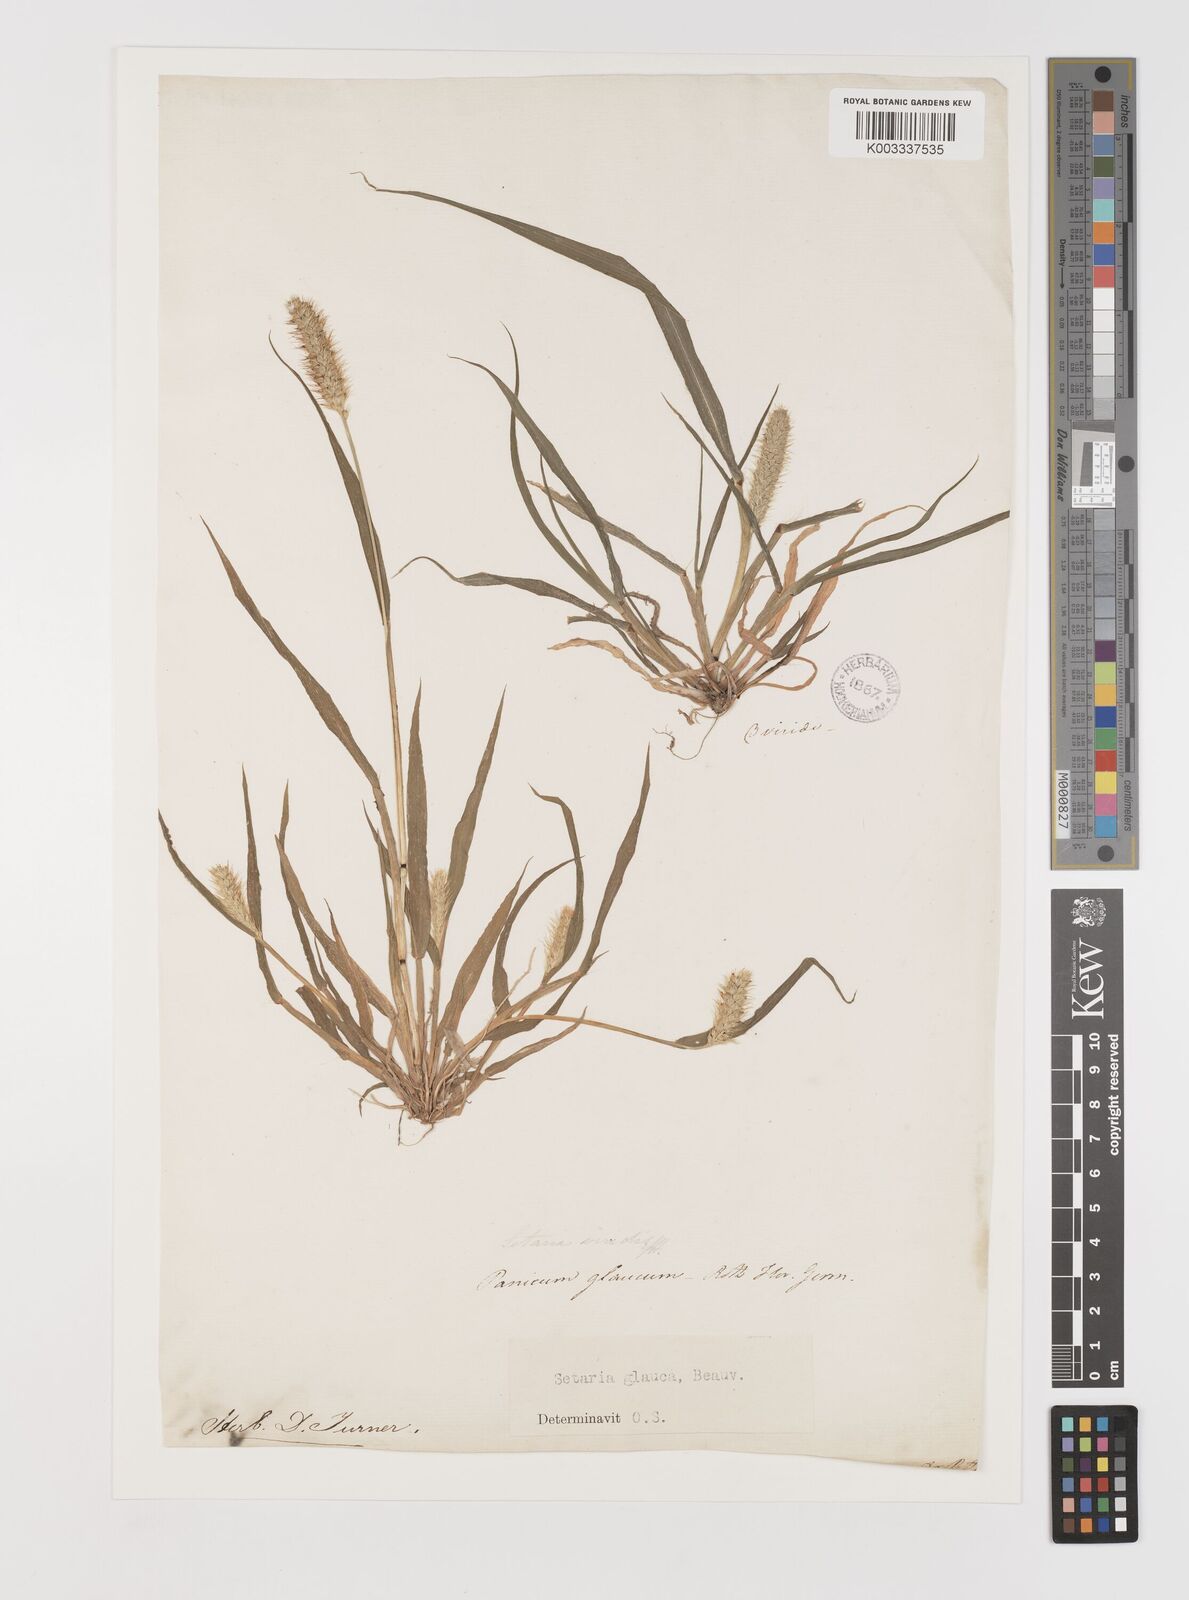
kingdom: Plantae
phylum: Tracheophyta
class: Liliopsida
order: Poales
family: Poaceae
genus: Setaria
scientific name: Setaria pumila
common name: Yellow bristle-grass
